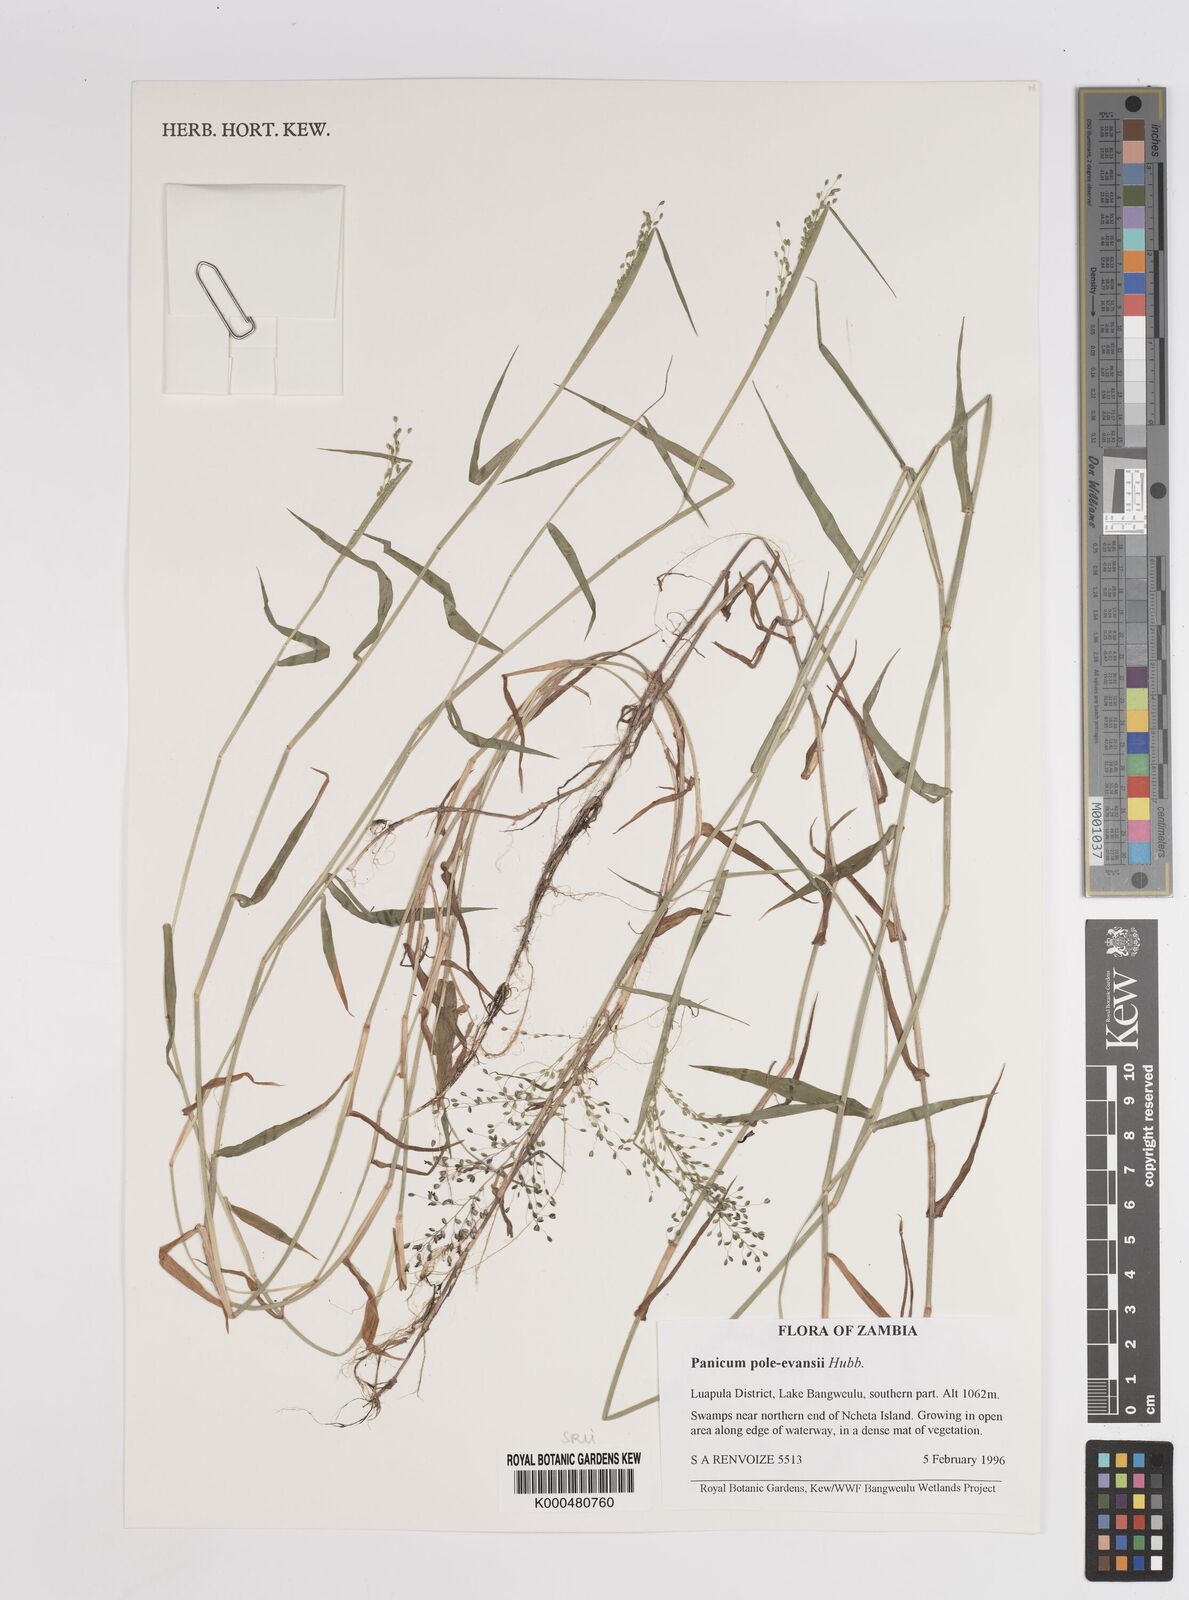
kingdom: Plantae
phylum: Tracheophyta
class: Liliopsida
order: Poales
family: Poaceae
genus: Adenochloa
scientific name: Adenochloa pole-evansii
